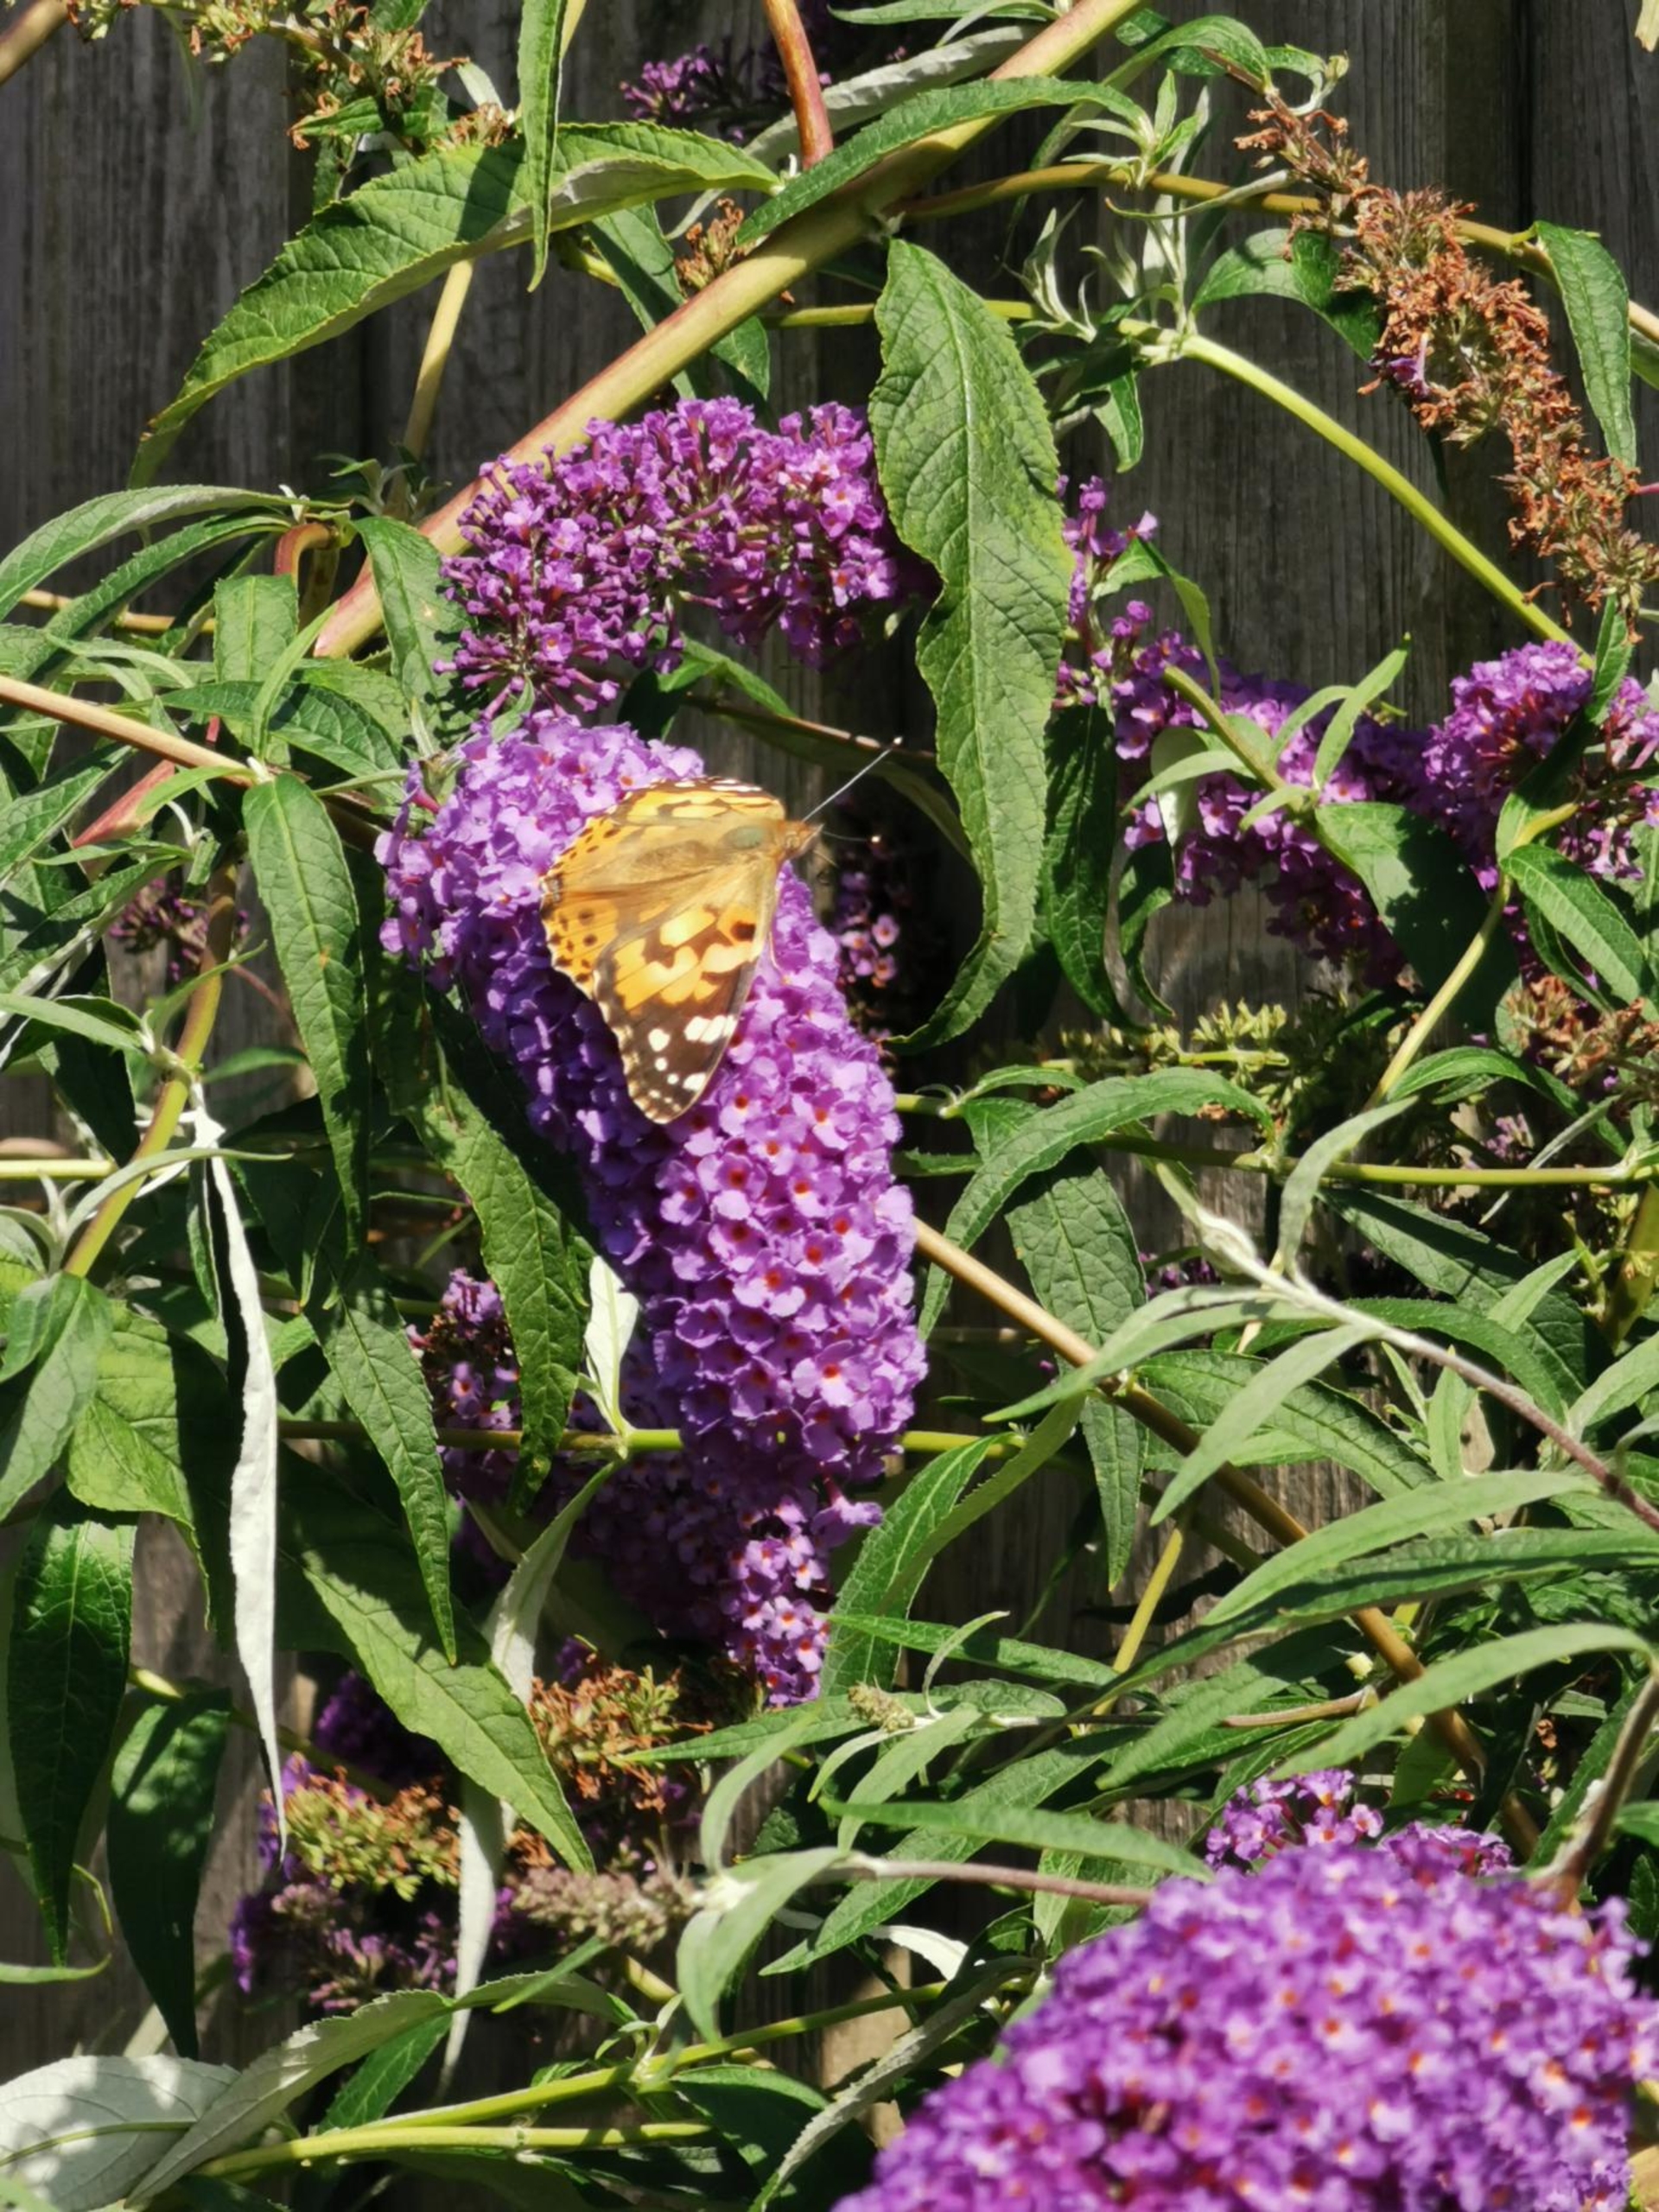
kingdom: Animalia
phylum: Arthropoda
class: Insecta
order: Lepidoptera
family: Nymphalidae
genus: Vanessa
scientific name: Vanessa cardui
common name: Tidselsommerfugl
